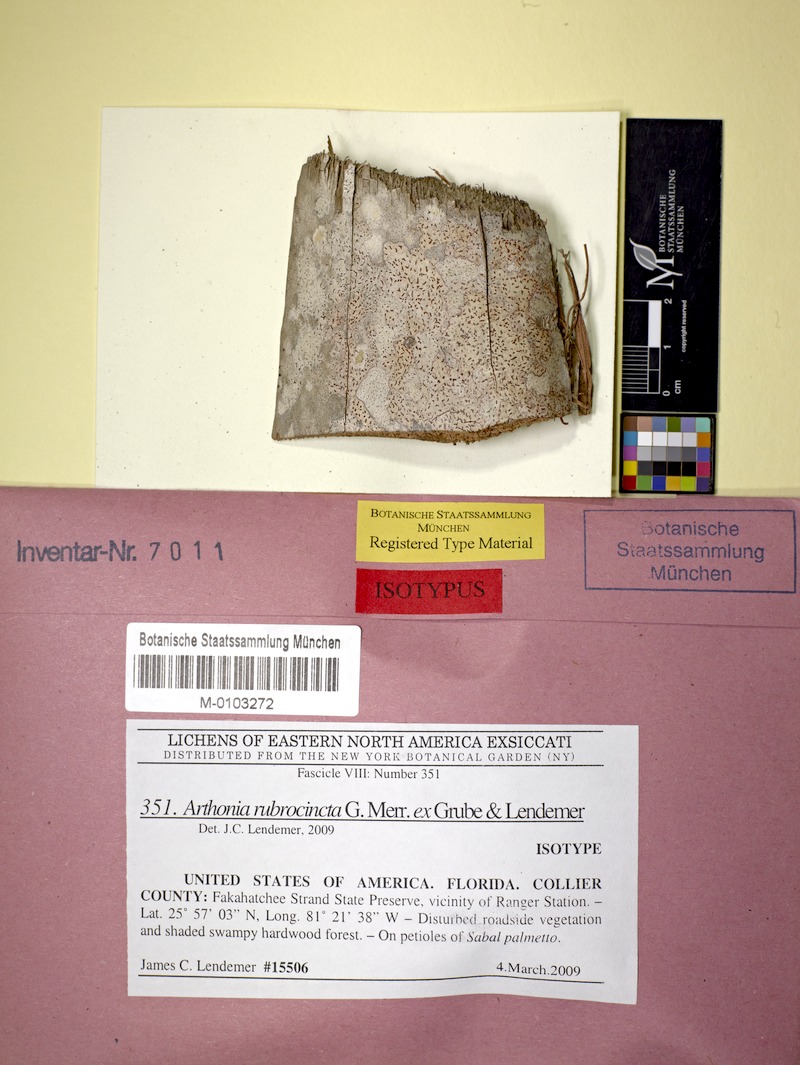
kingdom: Fungi
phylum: Ascomycota
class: Arthoniomycetes
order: Arthoniales
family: Arthoniaceae
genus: Arthonia
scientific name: Arthonia rubrocincta
